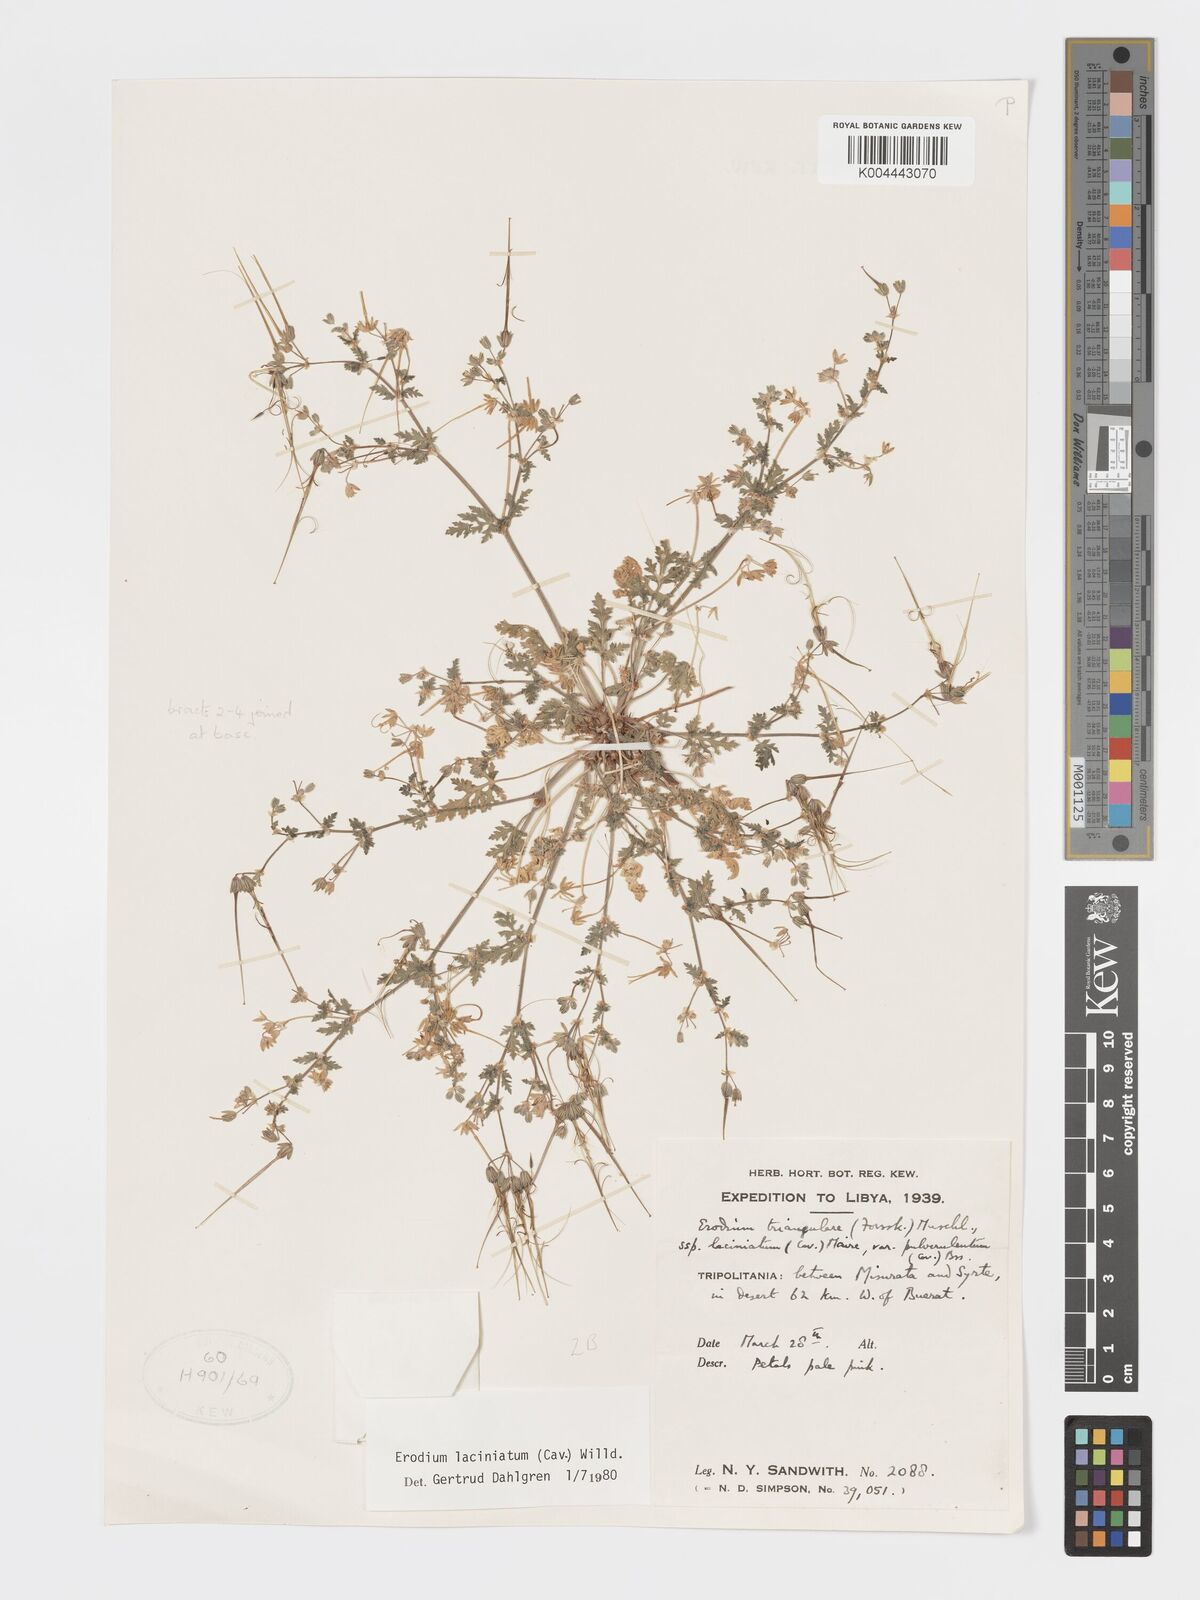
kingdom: Plantae
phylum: Tracheophyta
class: Magnoliopsida
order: Geraniales
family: Geraniaceae
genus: Erodium
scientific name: Erodium laciniatum
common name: Cutleaf stork's bill
